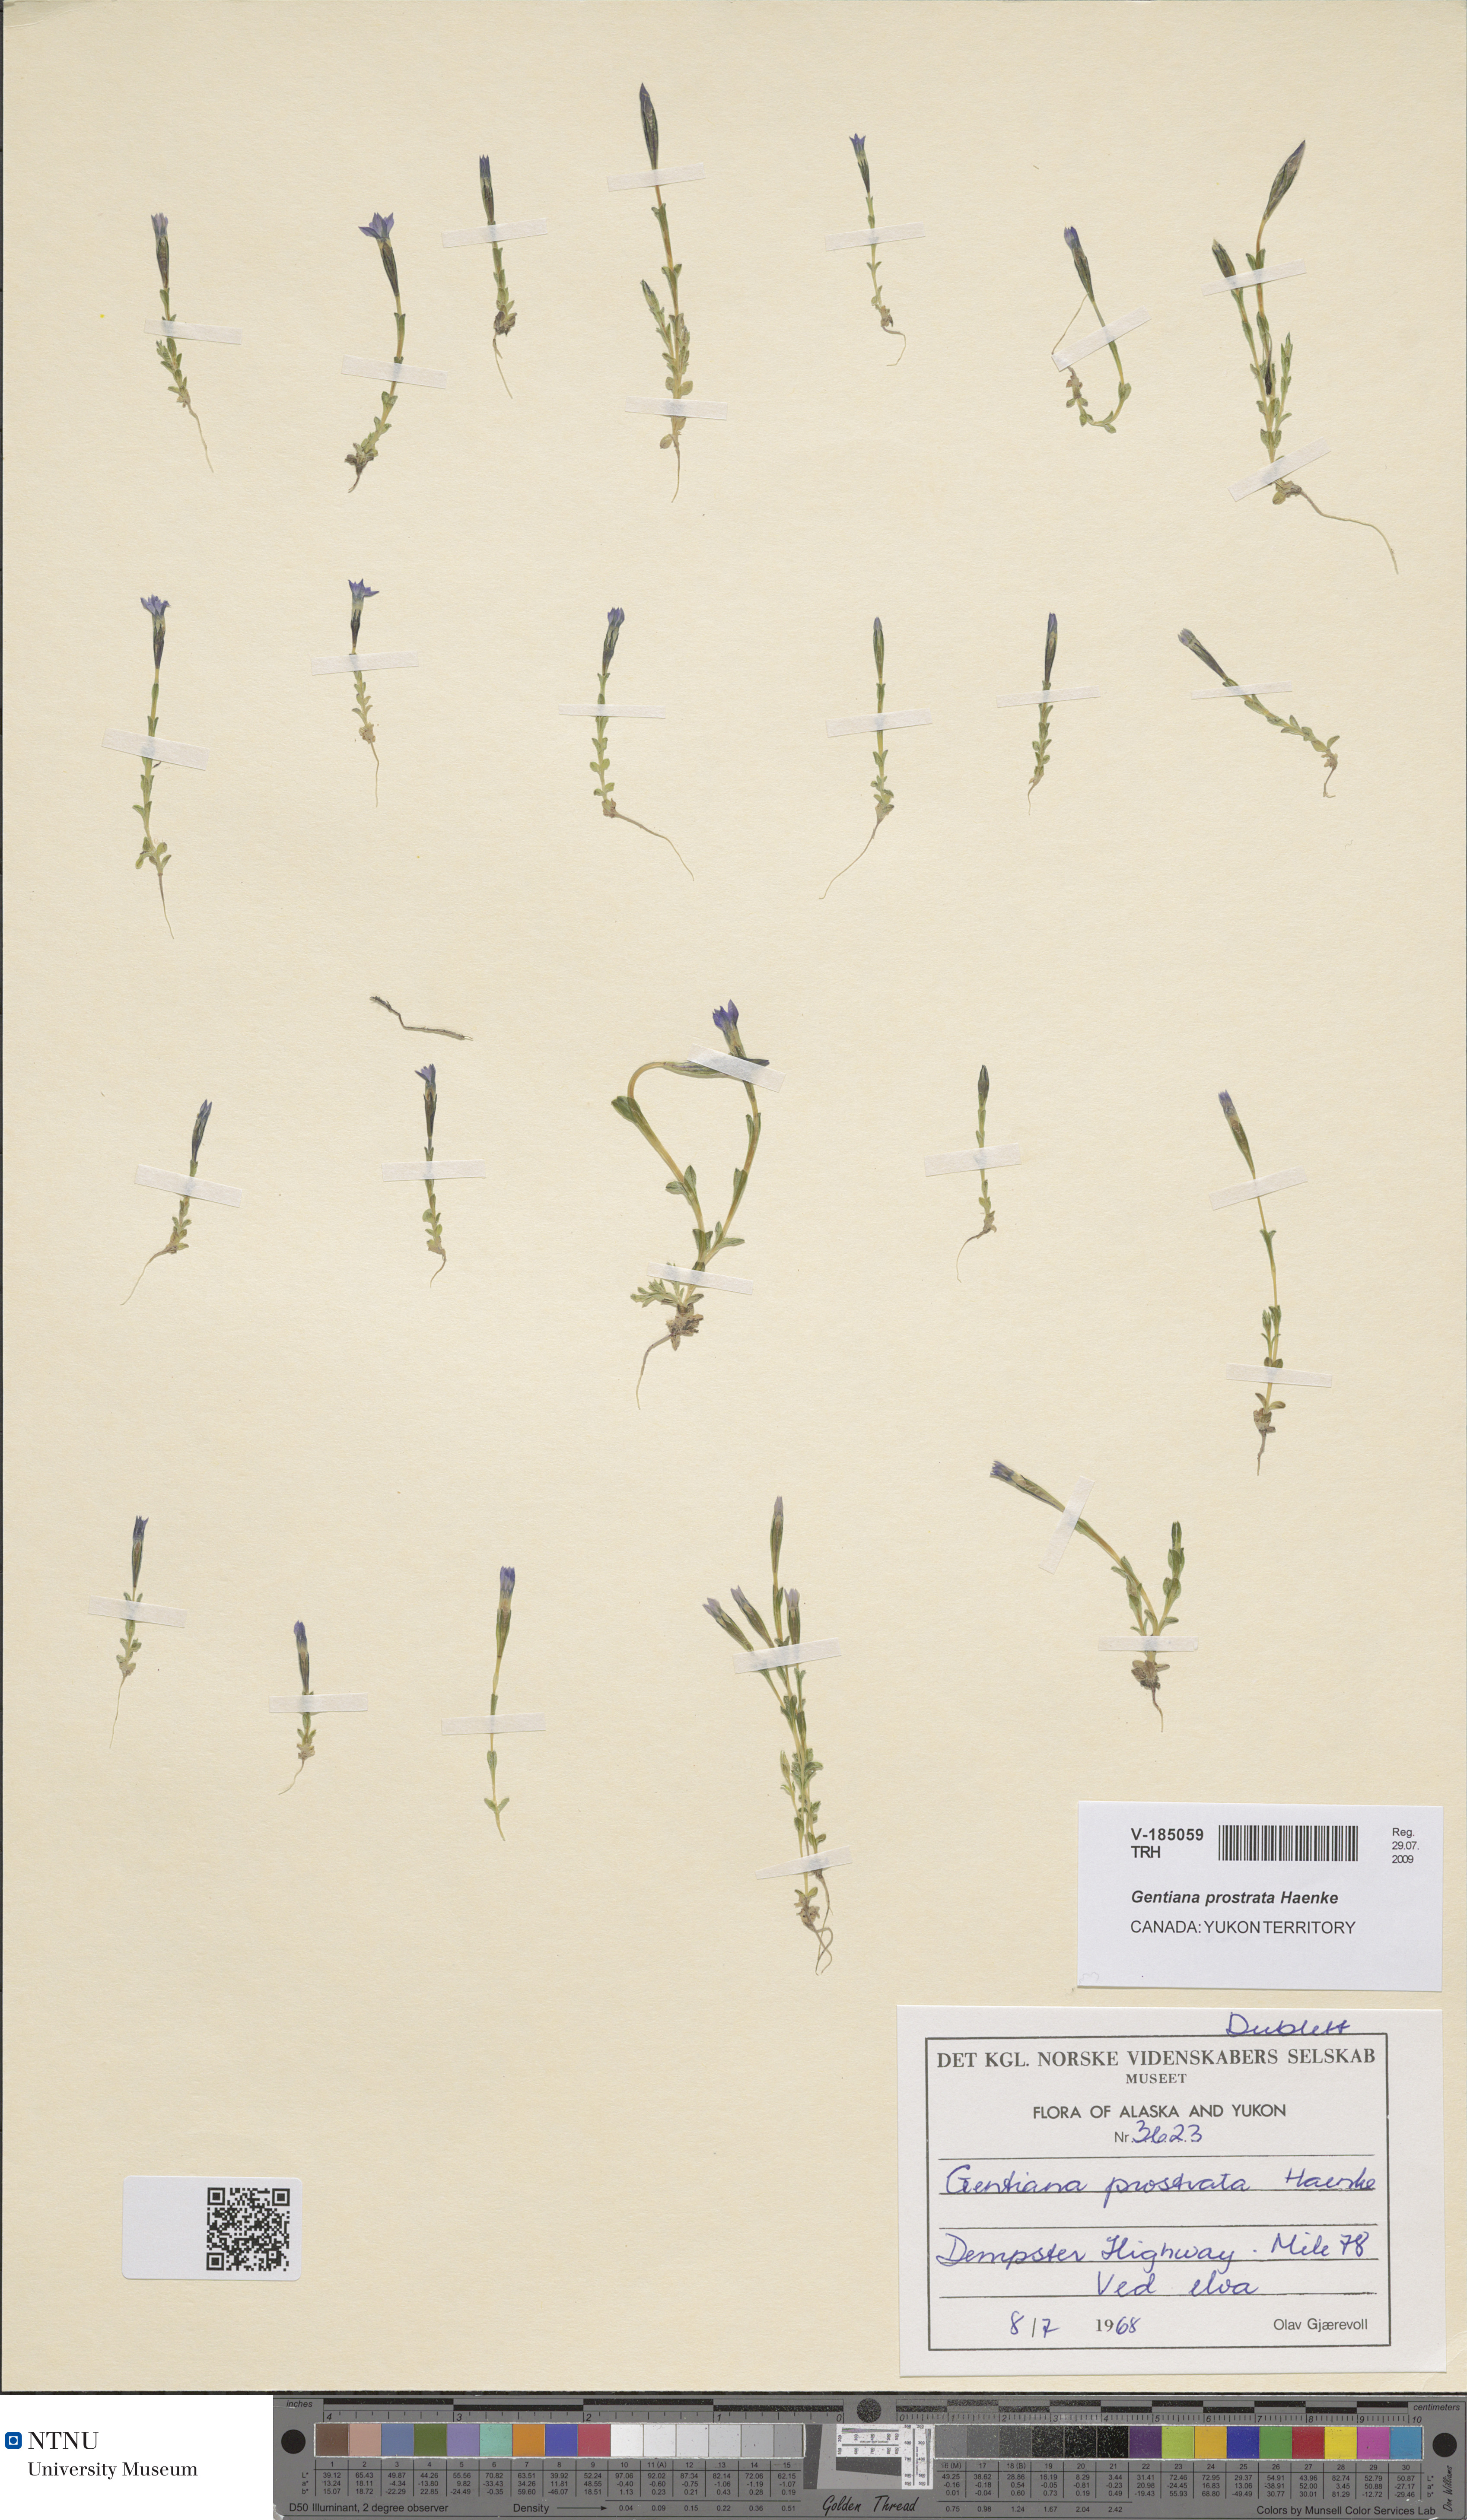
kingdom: Plantae
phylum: Tracheophyta
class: Magnoliopsida
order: Gentianales
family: Gentianaceae
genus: Gentiana
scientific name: Gentiana prostrata
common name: Moss gentian
